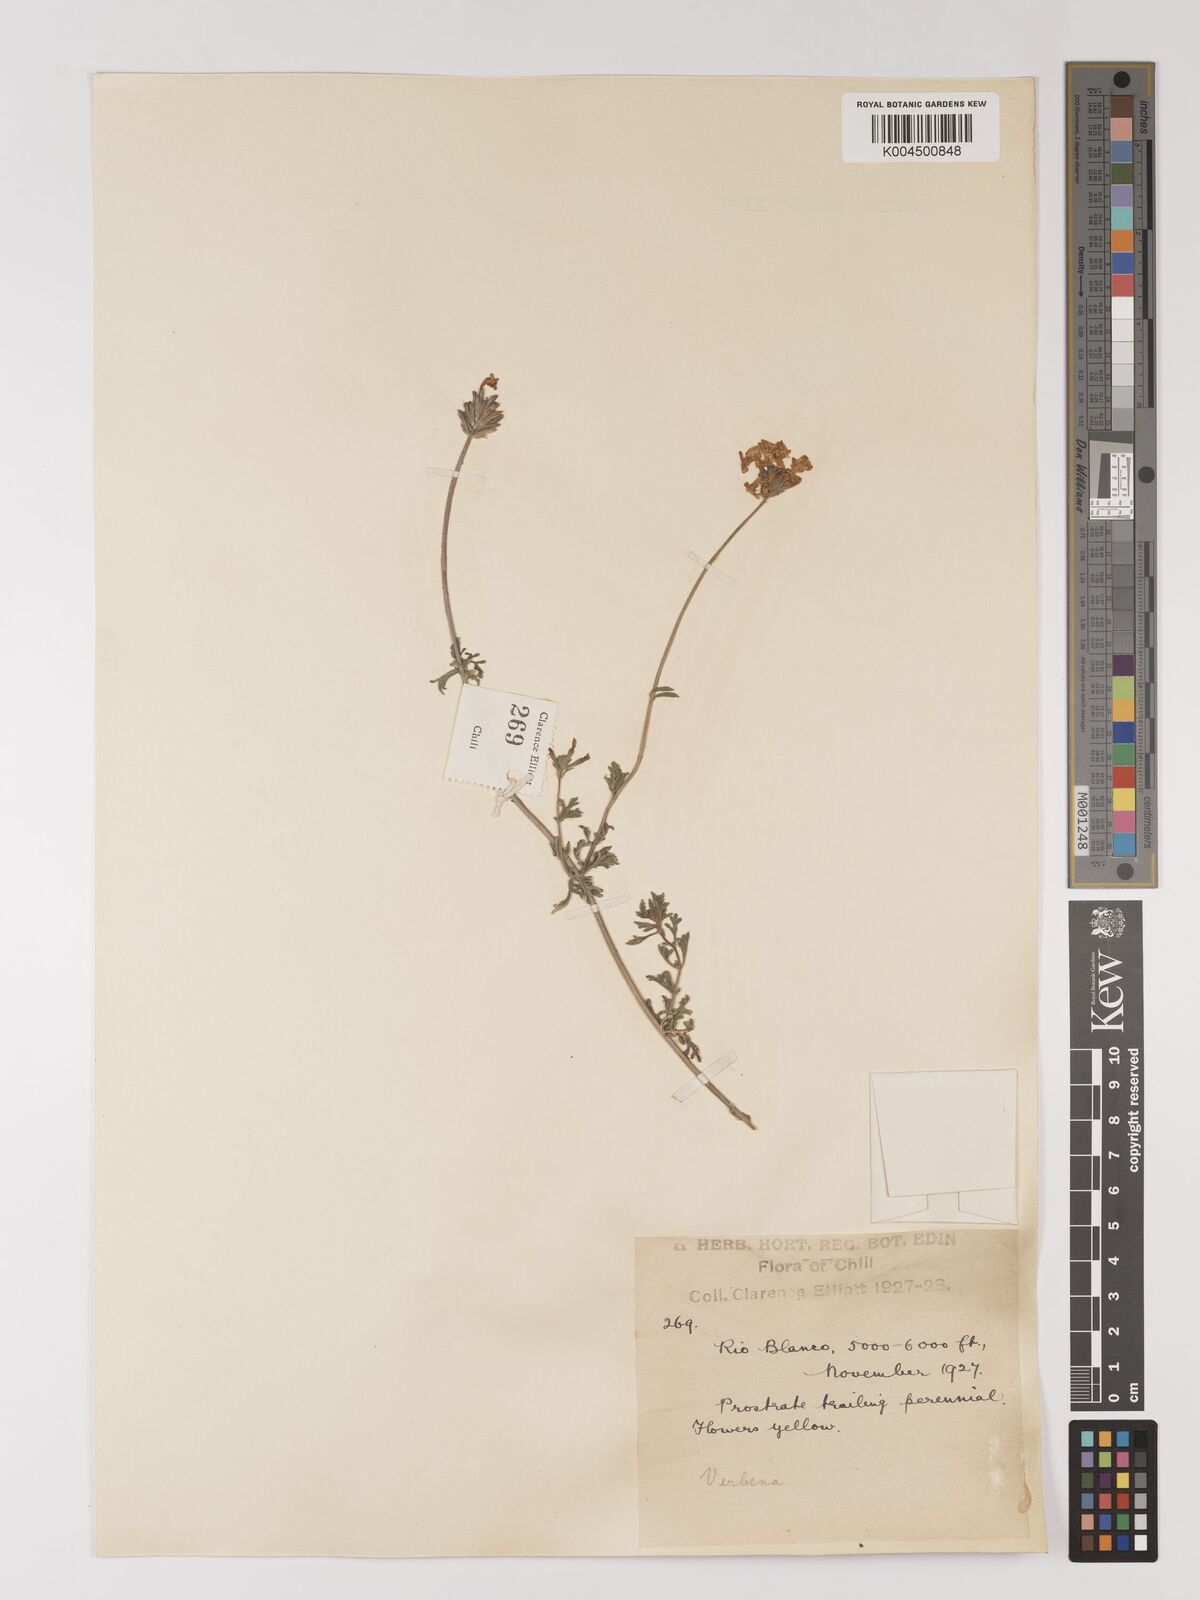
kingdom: Plantae
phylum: Tracheophyta
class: Magnoliopsida
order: Lamiales
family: Verbenaceae
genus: Verbena
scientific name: Verbena
